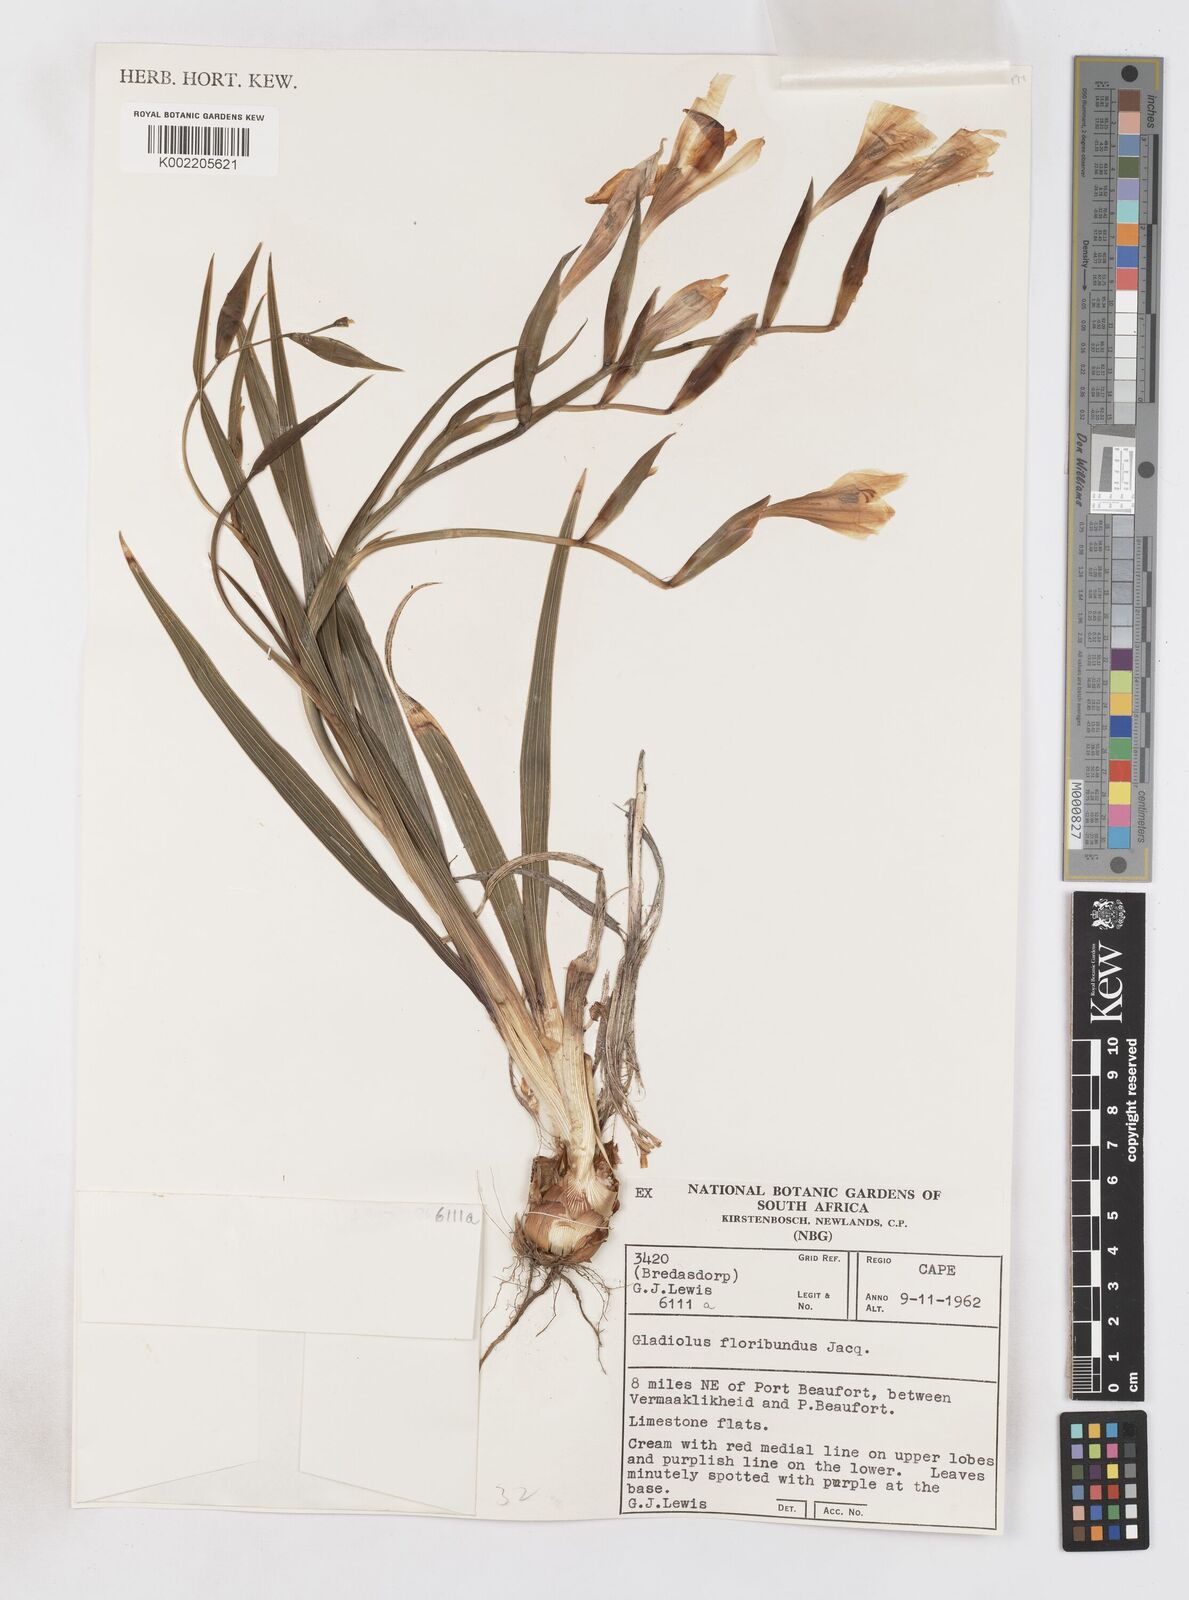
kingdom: Plantae
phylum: Tracheophyta
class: Liliopsida
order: Asparagales
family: Iridaceae
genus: Gladiolus
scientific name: Gladiolus floribundus
